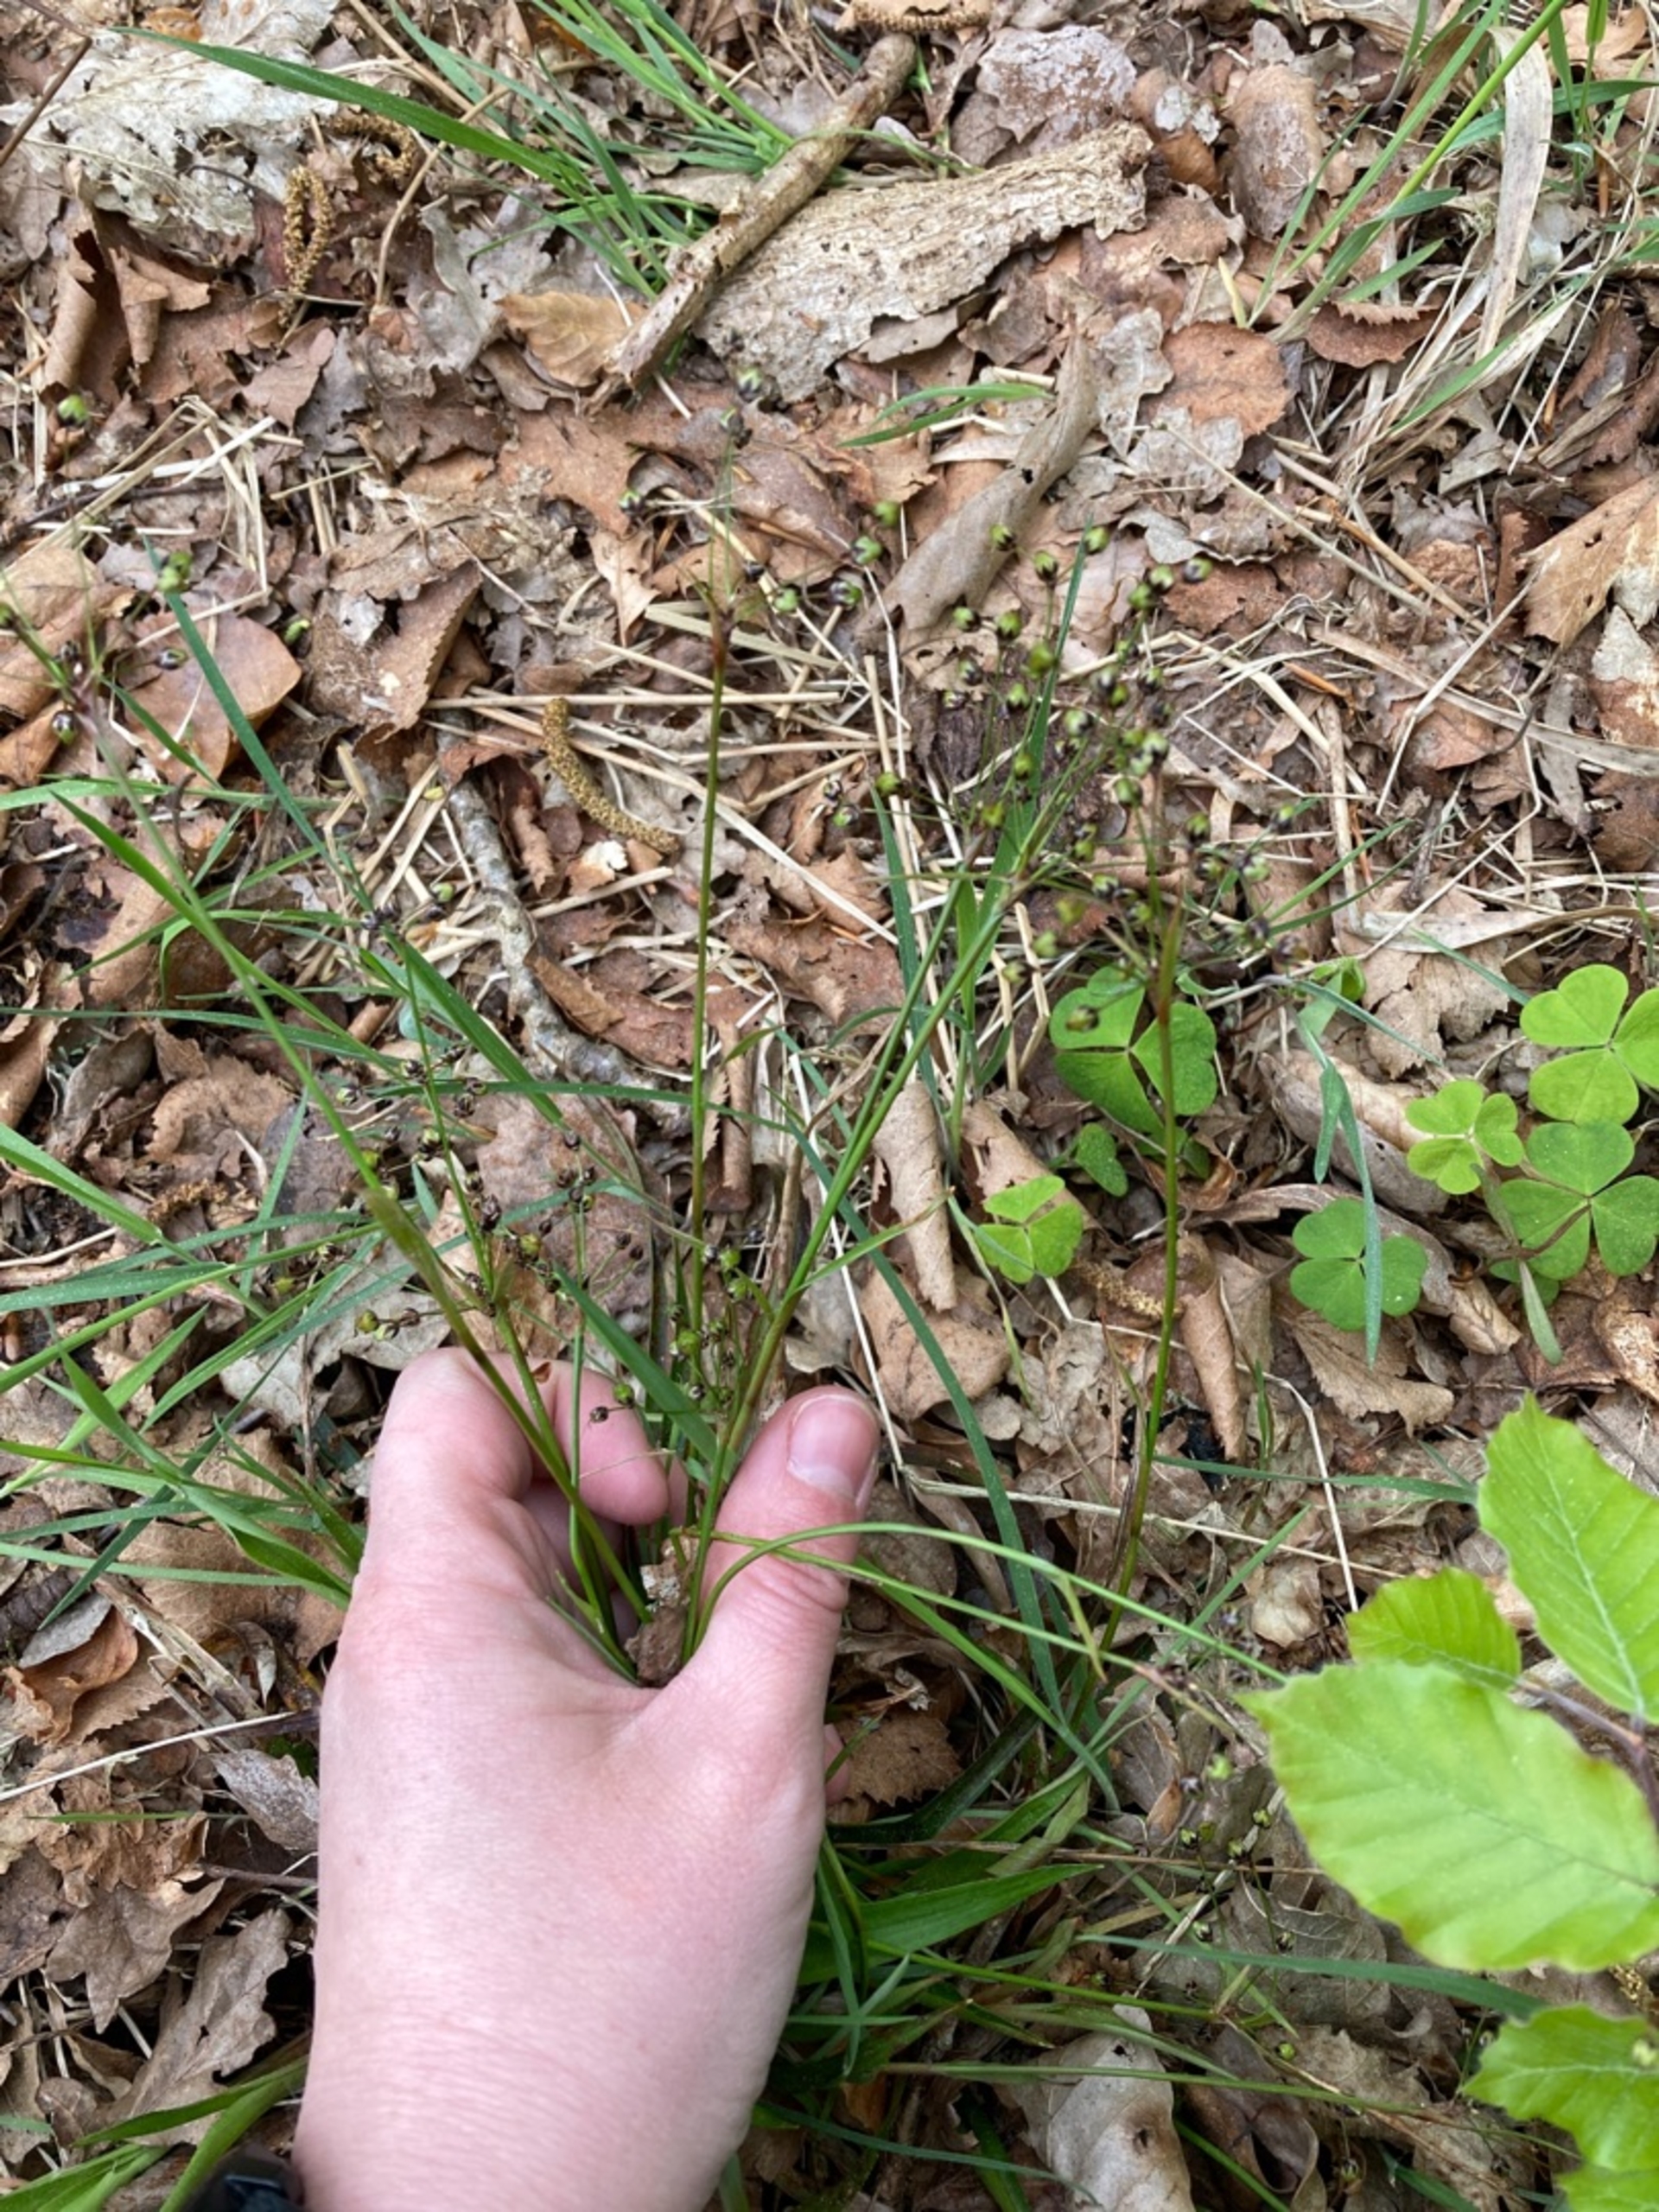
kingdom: Plantae
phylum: Tracheophyta
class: Liliopsida
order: Poales
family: Juncaceae
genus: Luzula
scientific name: Luzula pilosa
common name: Håret frytle
